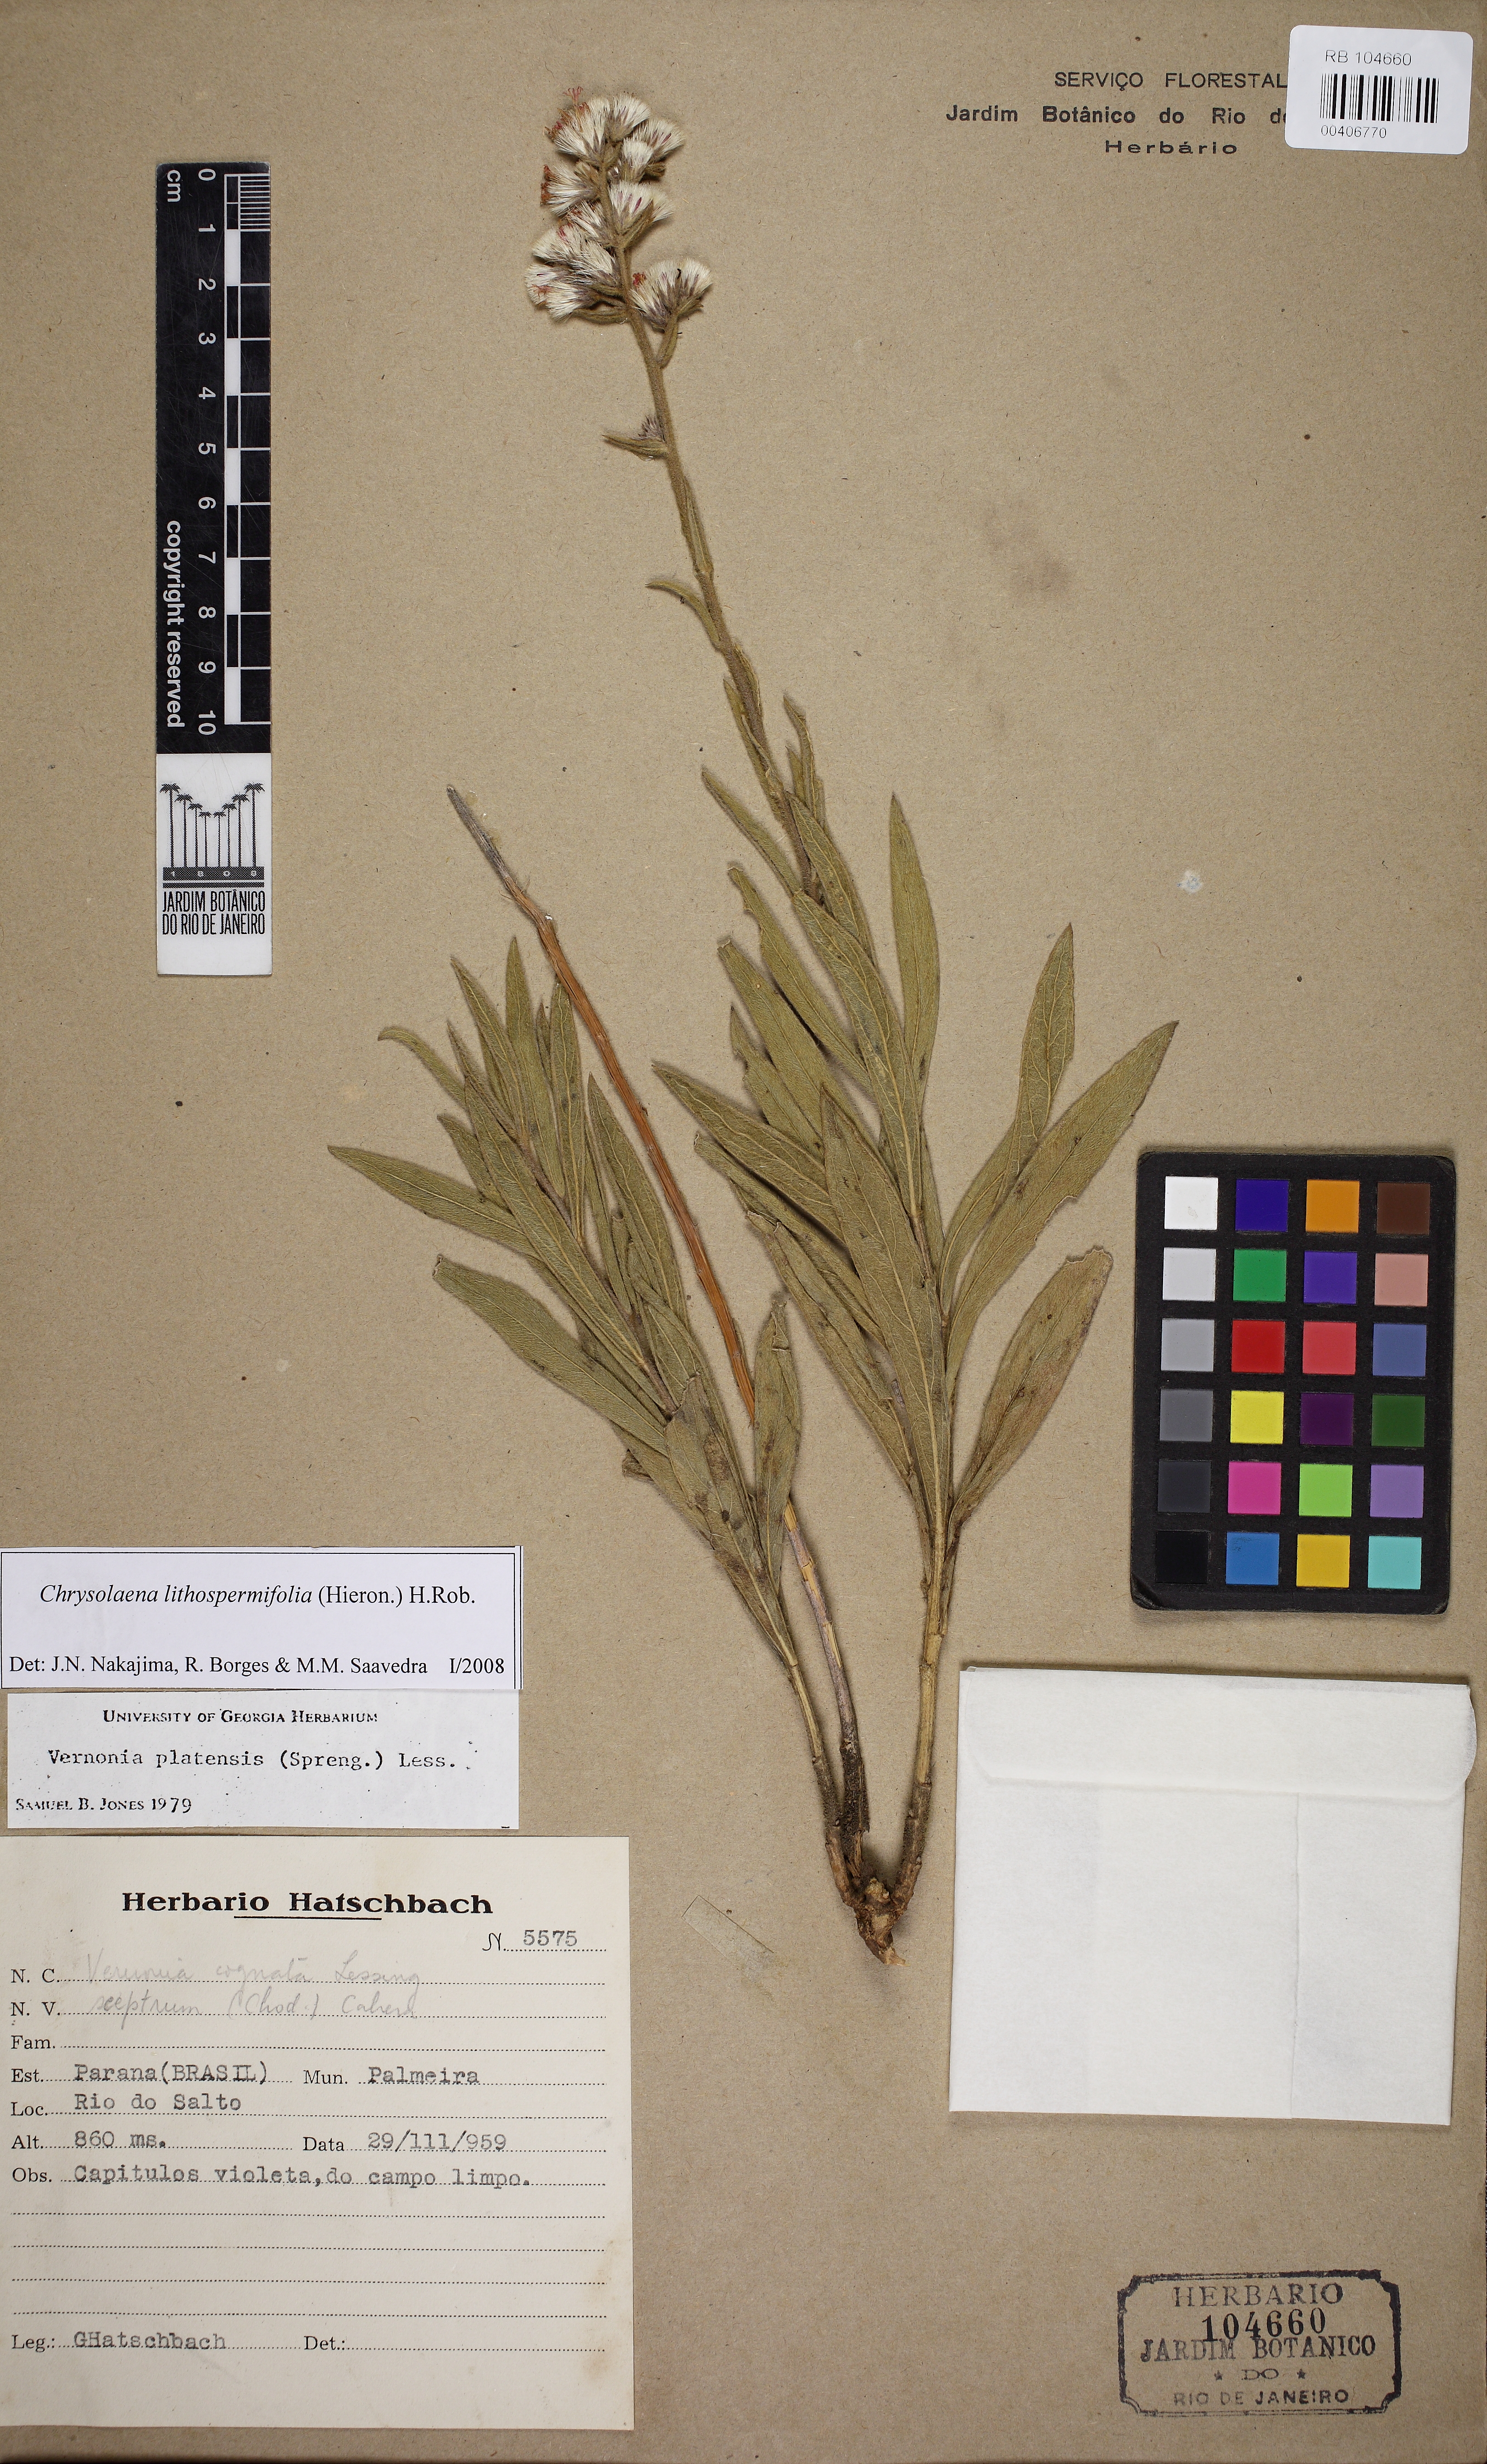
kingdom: Plantae
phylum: Tracheophyta
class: Magnoliopsida
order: Asterales
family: Asteraceae
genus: Chrysolaena
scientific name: Chrysolaena lithospermifolia
